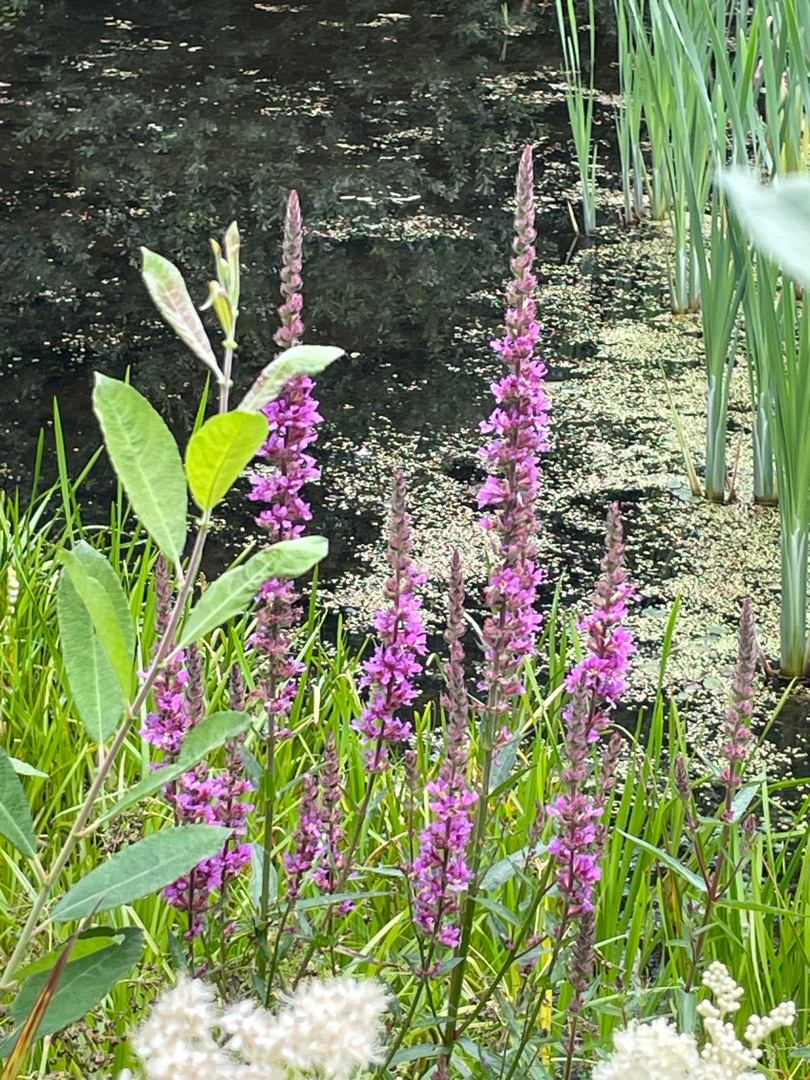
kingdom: Plantae
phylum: Tracheophyta
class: Magnoliopsida
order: Myrtales
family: Lythraceae
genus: Lythrum
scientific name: Lythrum salicaria
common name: Kattehale
